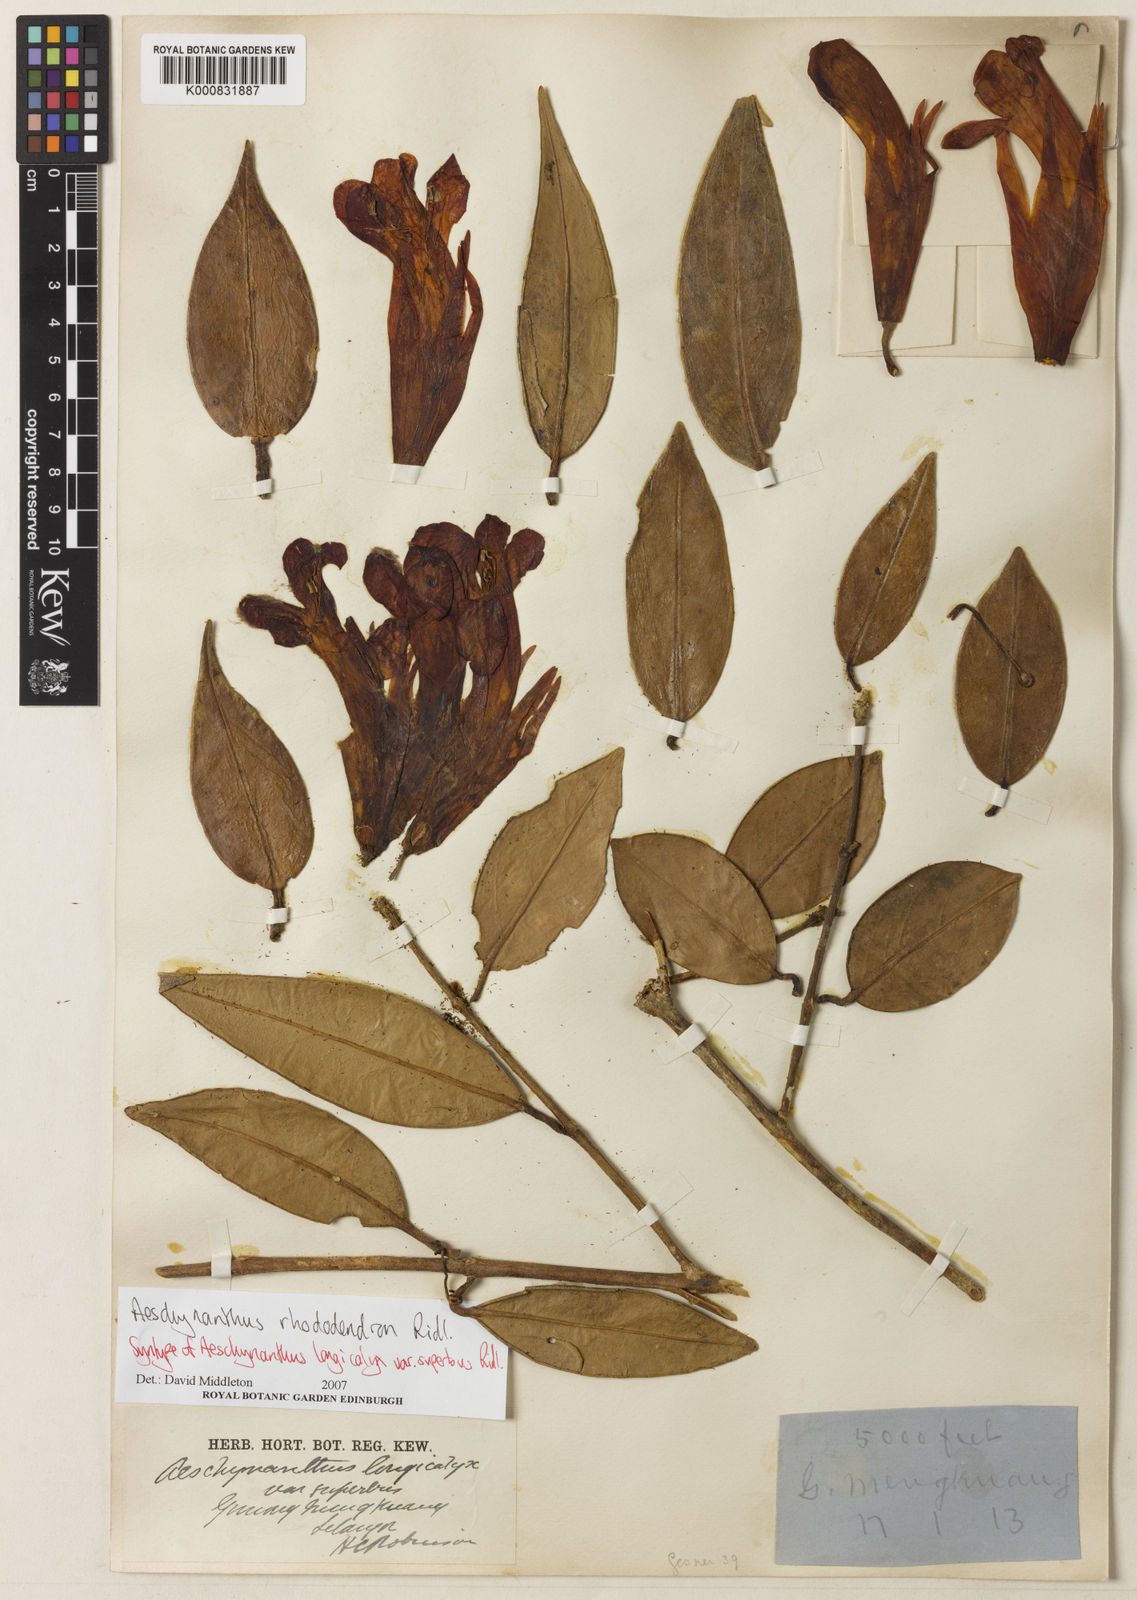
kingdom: Plantae
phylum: Tracheophyta
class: Magnoliopsida
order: Lamiales
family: Gesneriaceae
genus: Aeschynanthus
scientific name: Aeschynanthus rhododendron
